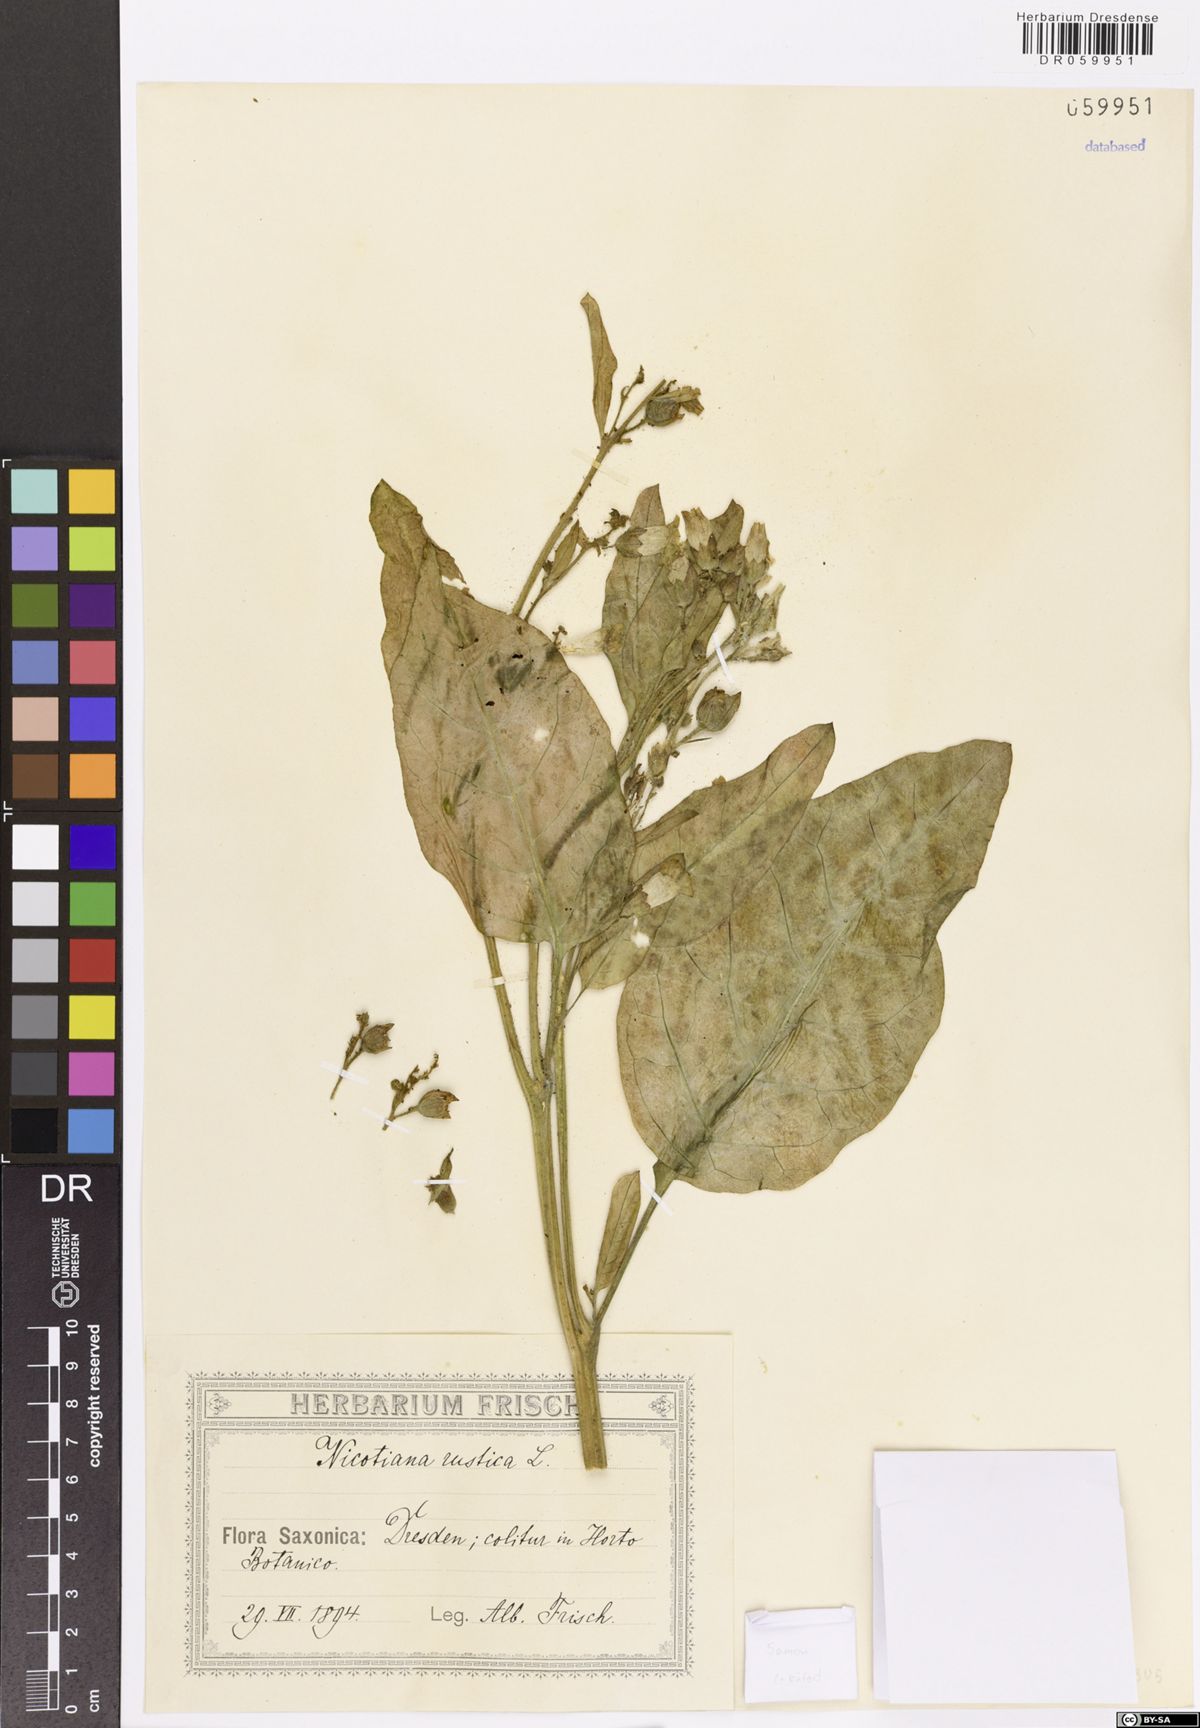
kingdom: Plantae
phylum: Tracheophyta
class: Magnoliopsida
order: Solanales
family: Solanaceae
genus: Nicotiana
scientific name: Nicotiana rustica
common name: Wild tobacco
